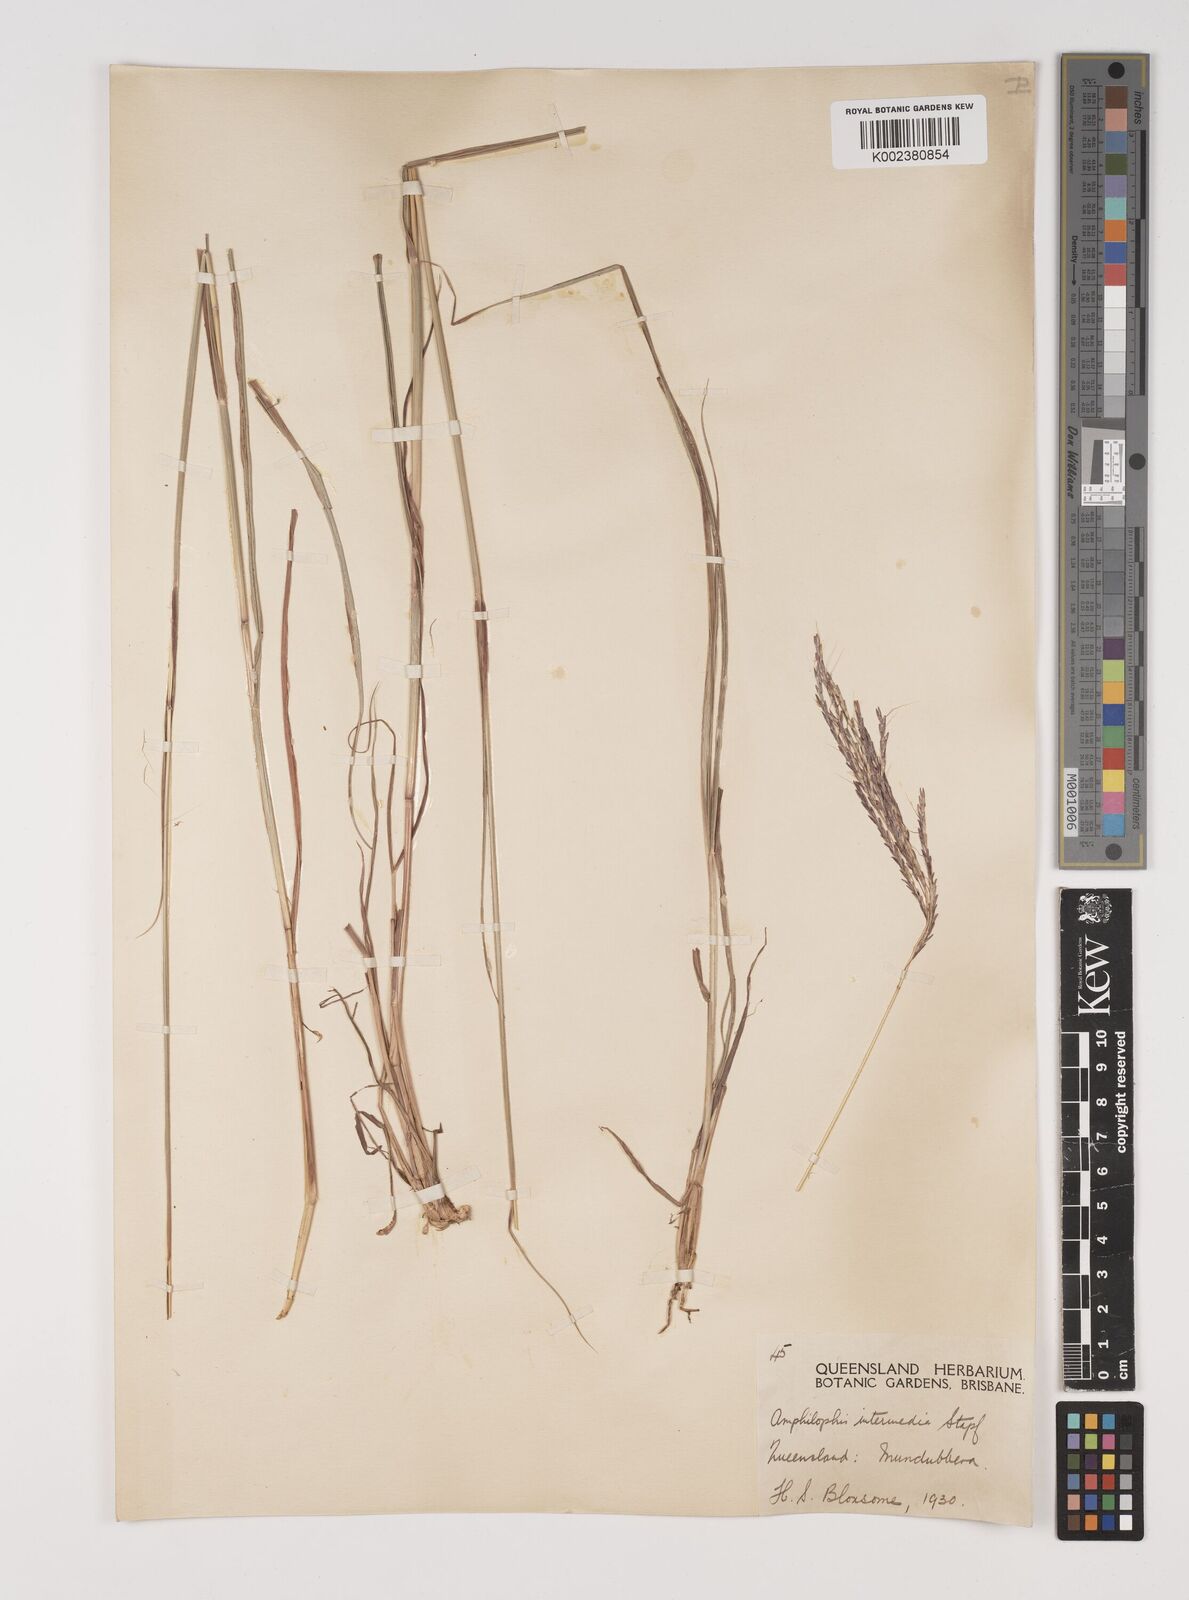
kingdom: Plantae
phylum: Tracheophyta
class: Liliopsida
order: Poales
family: Poaceae
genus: Bothriochloa
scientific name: Bothriochloa bladhii
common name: Caucasian bluestem
